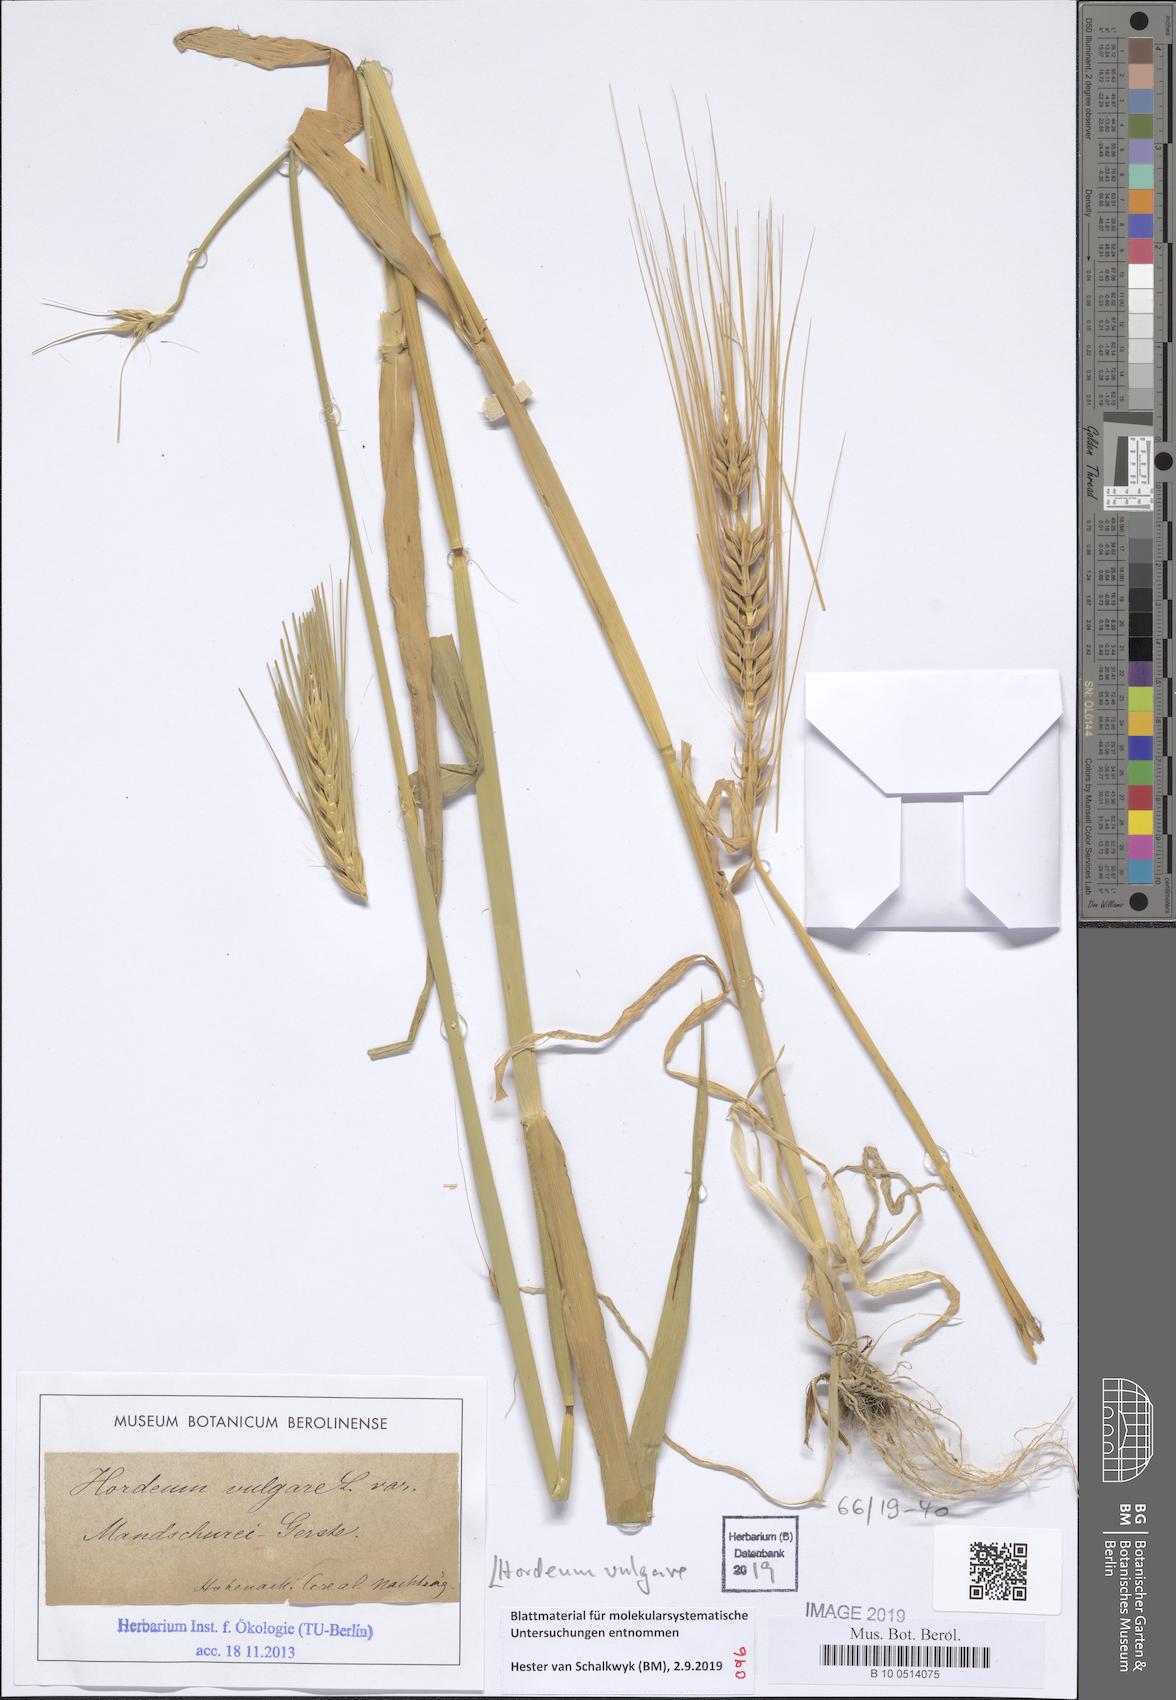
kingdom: Plantae
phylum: Tracheophyta
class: Liliopsida
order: Poales
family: Poaceae
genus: Hordeum
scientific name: Hordeum vulgare
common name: Common barley
